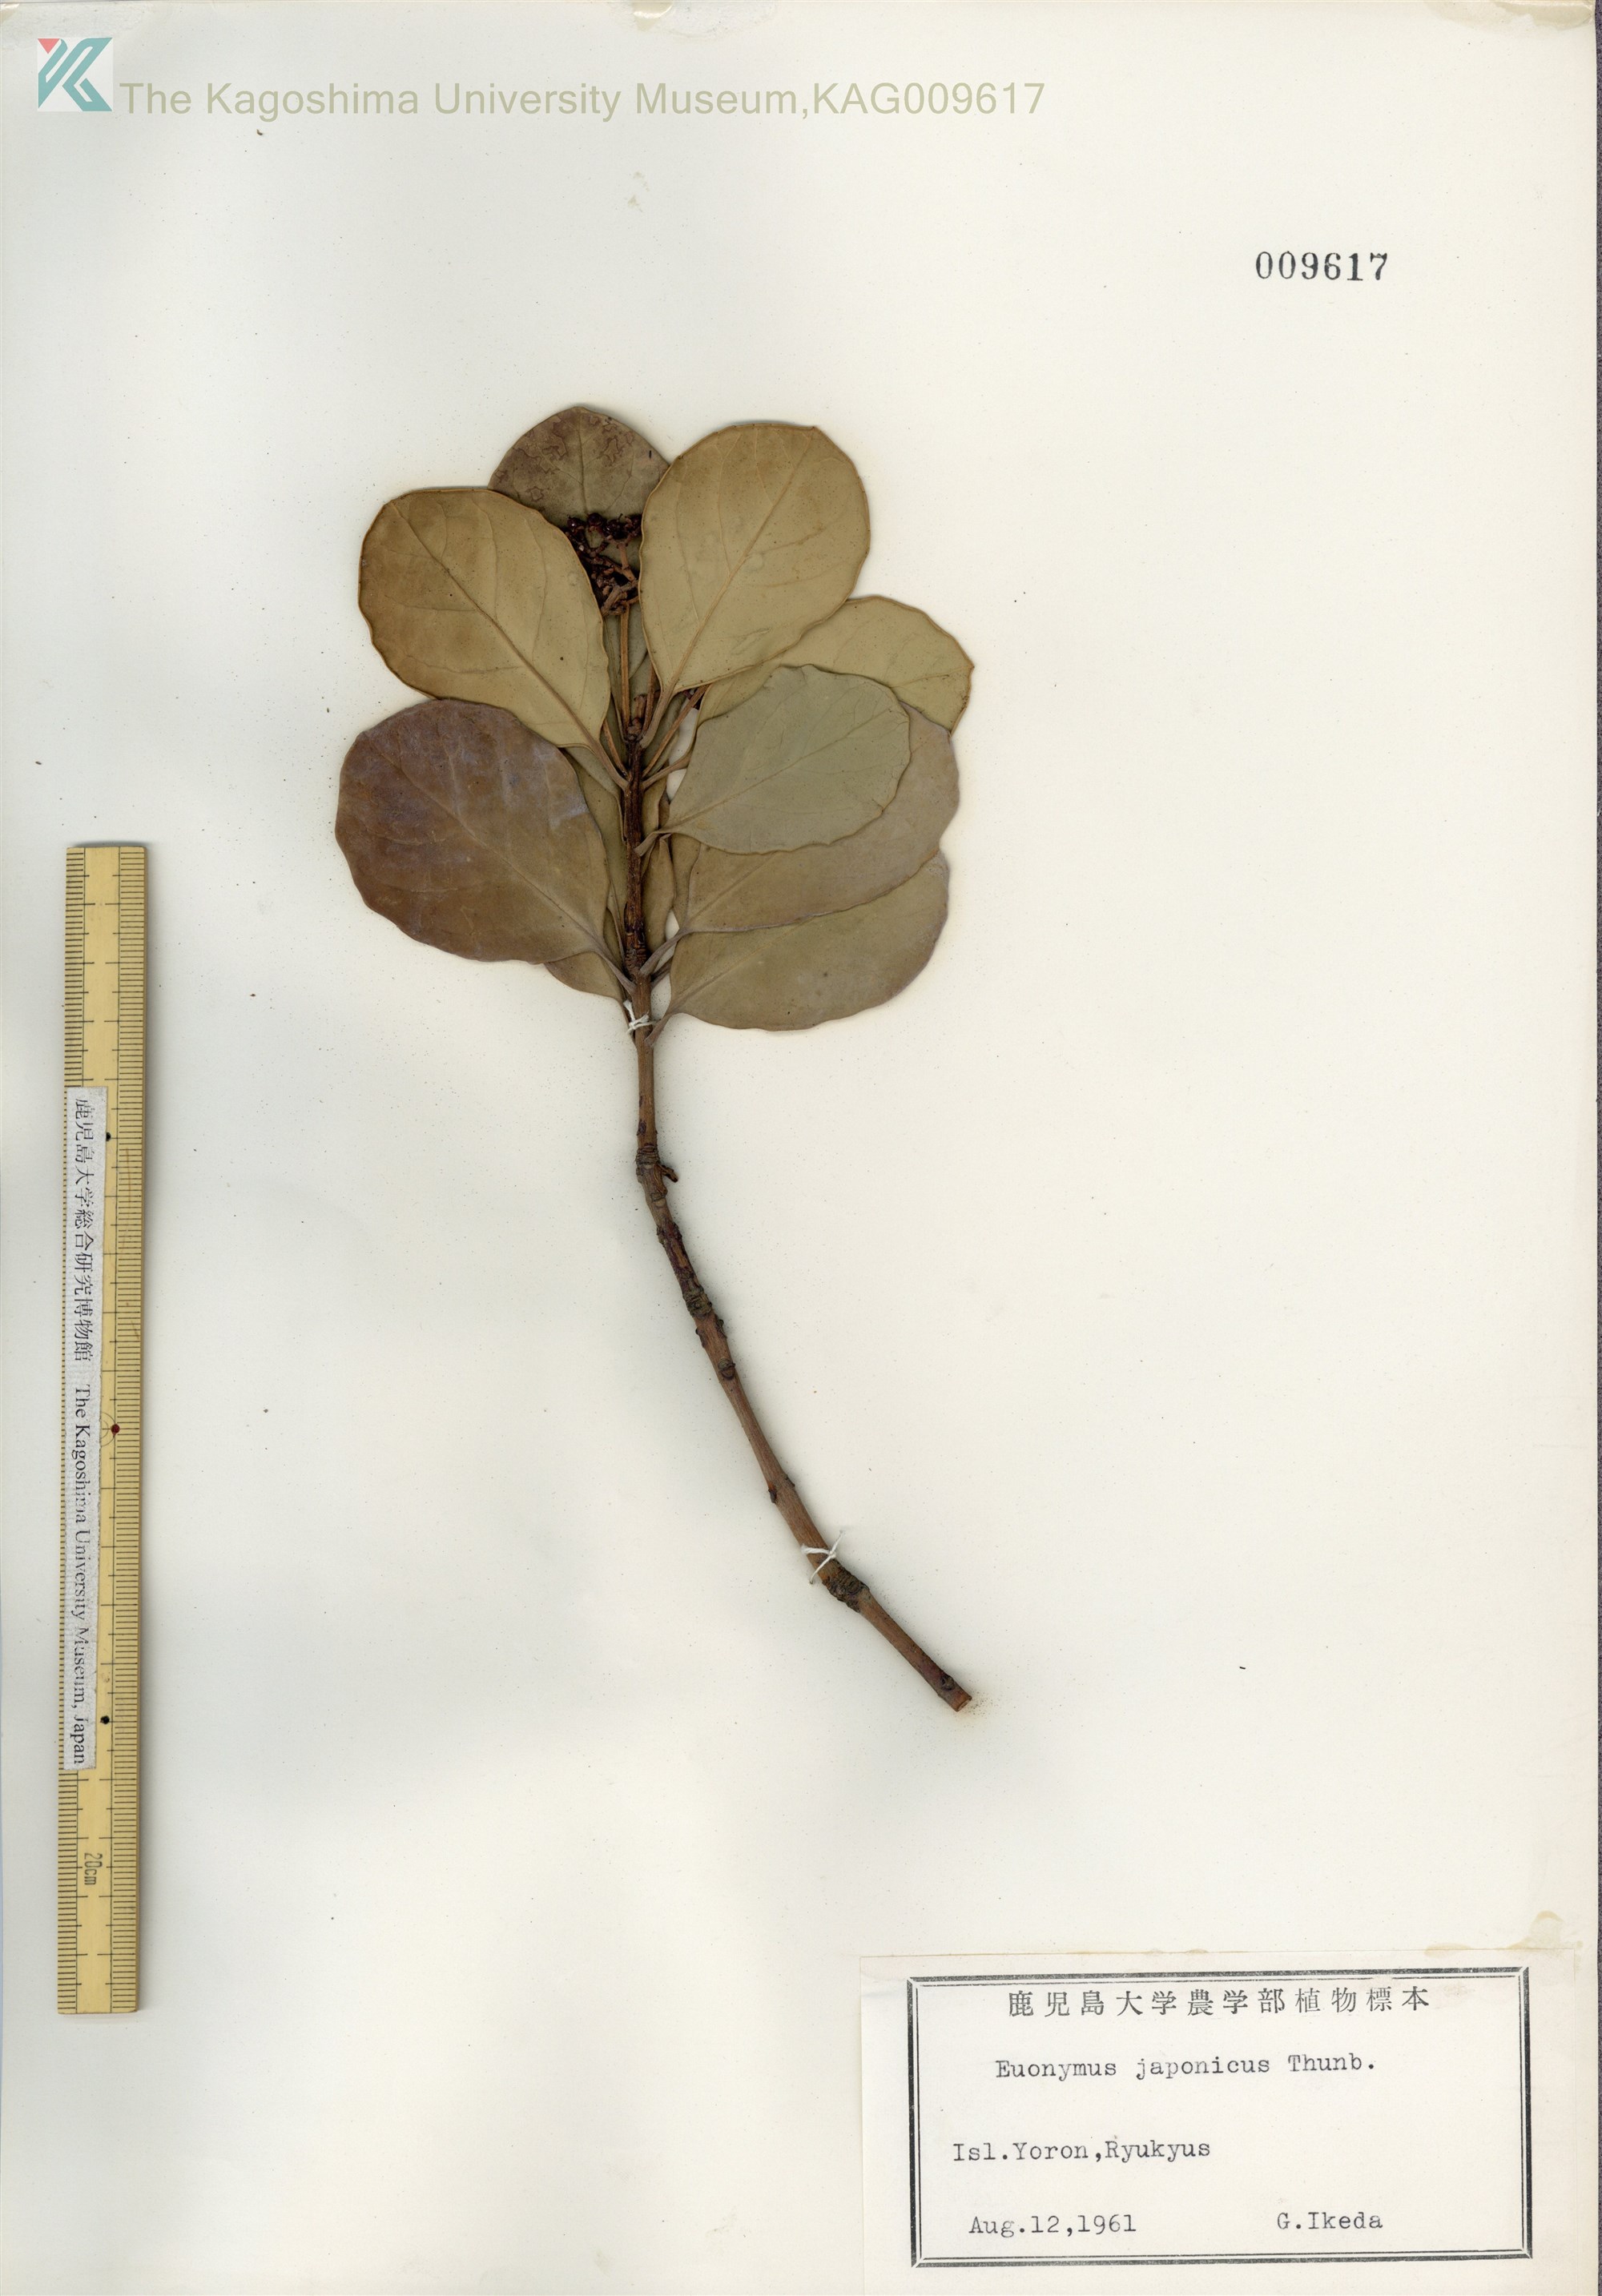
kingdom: Plantae
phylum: Tracheophyta
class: Magnoliopsida
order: Celastrales
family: Celastraceae
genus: Euonymus
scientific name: Euonymus japonicus
